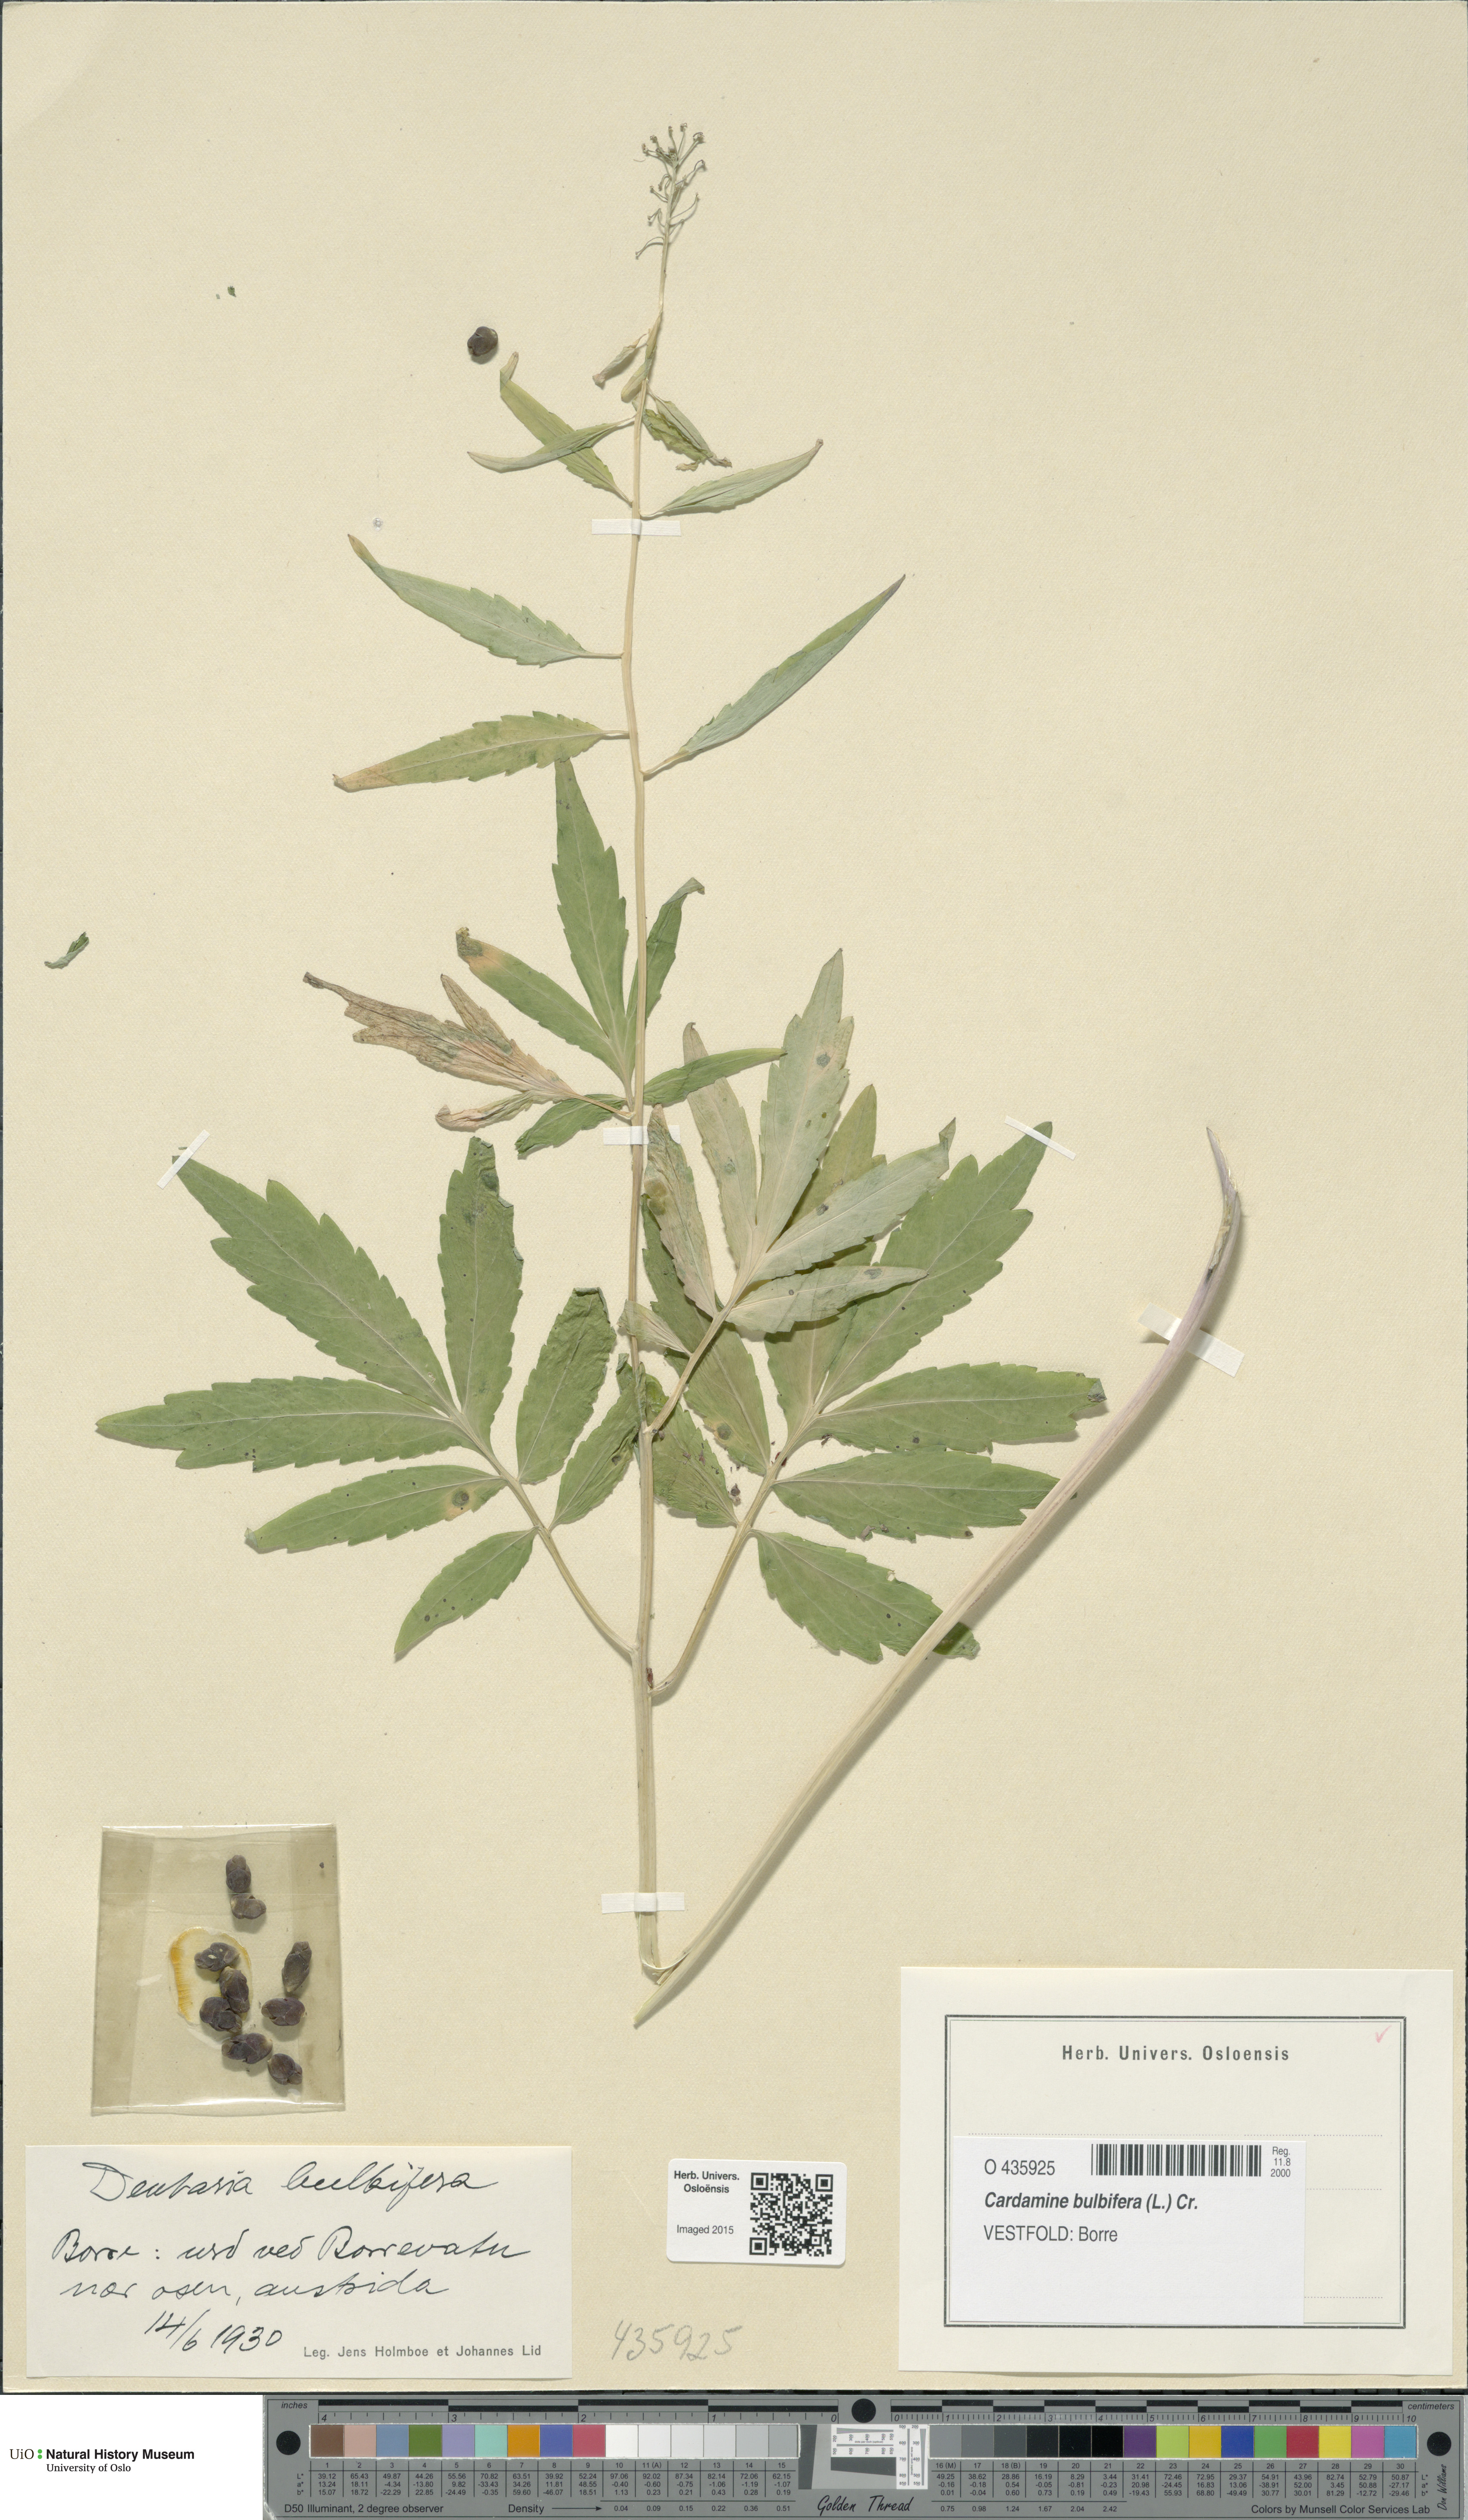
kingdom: Plantae
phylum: Tracheophyta
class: Magnoliopsida
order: Brassicales
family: Brassicaceae
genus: Cardamine
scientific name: Cardamine bulbifera
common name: Coralroot bittercress
